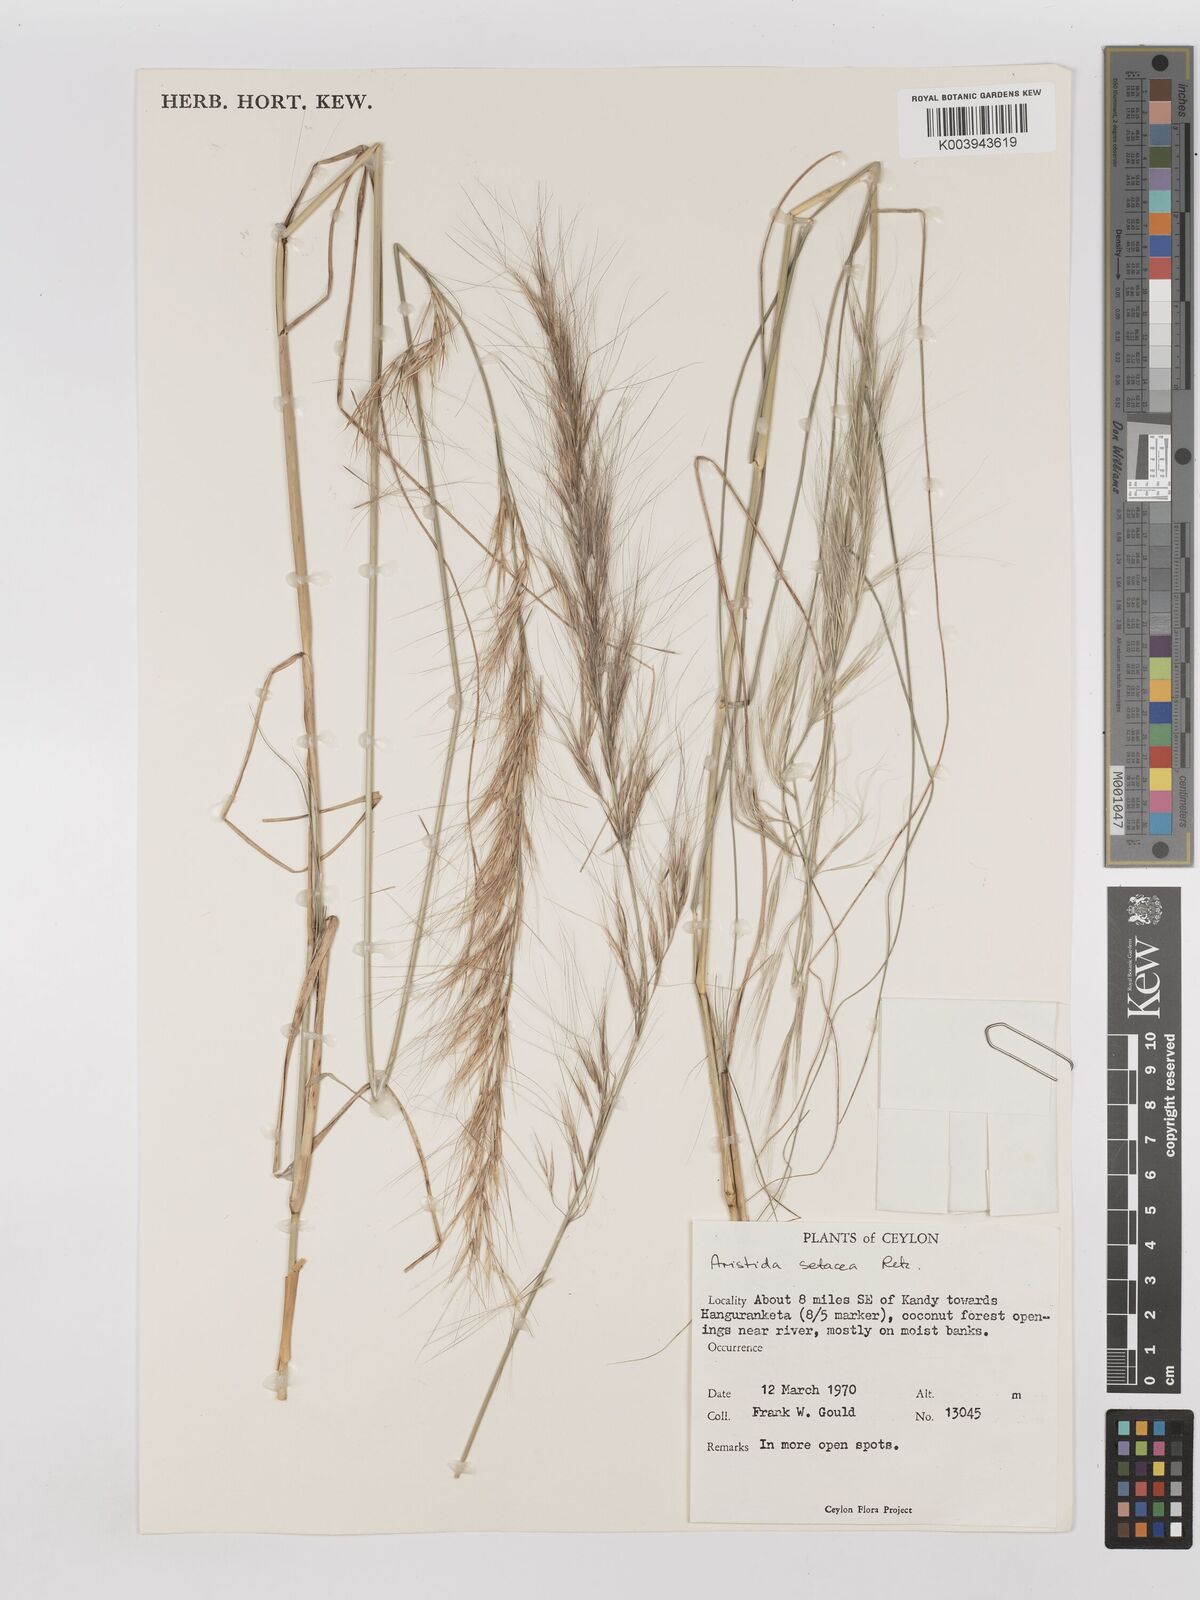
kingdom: Plantae
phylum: Tracheophyta
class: Liliopsida
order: Poales
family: Poaceae
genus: Aristida
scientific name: Aristida setacea
